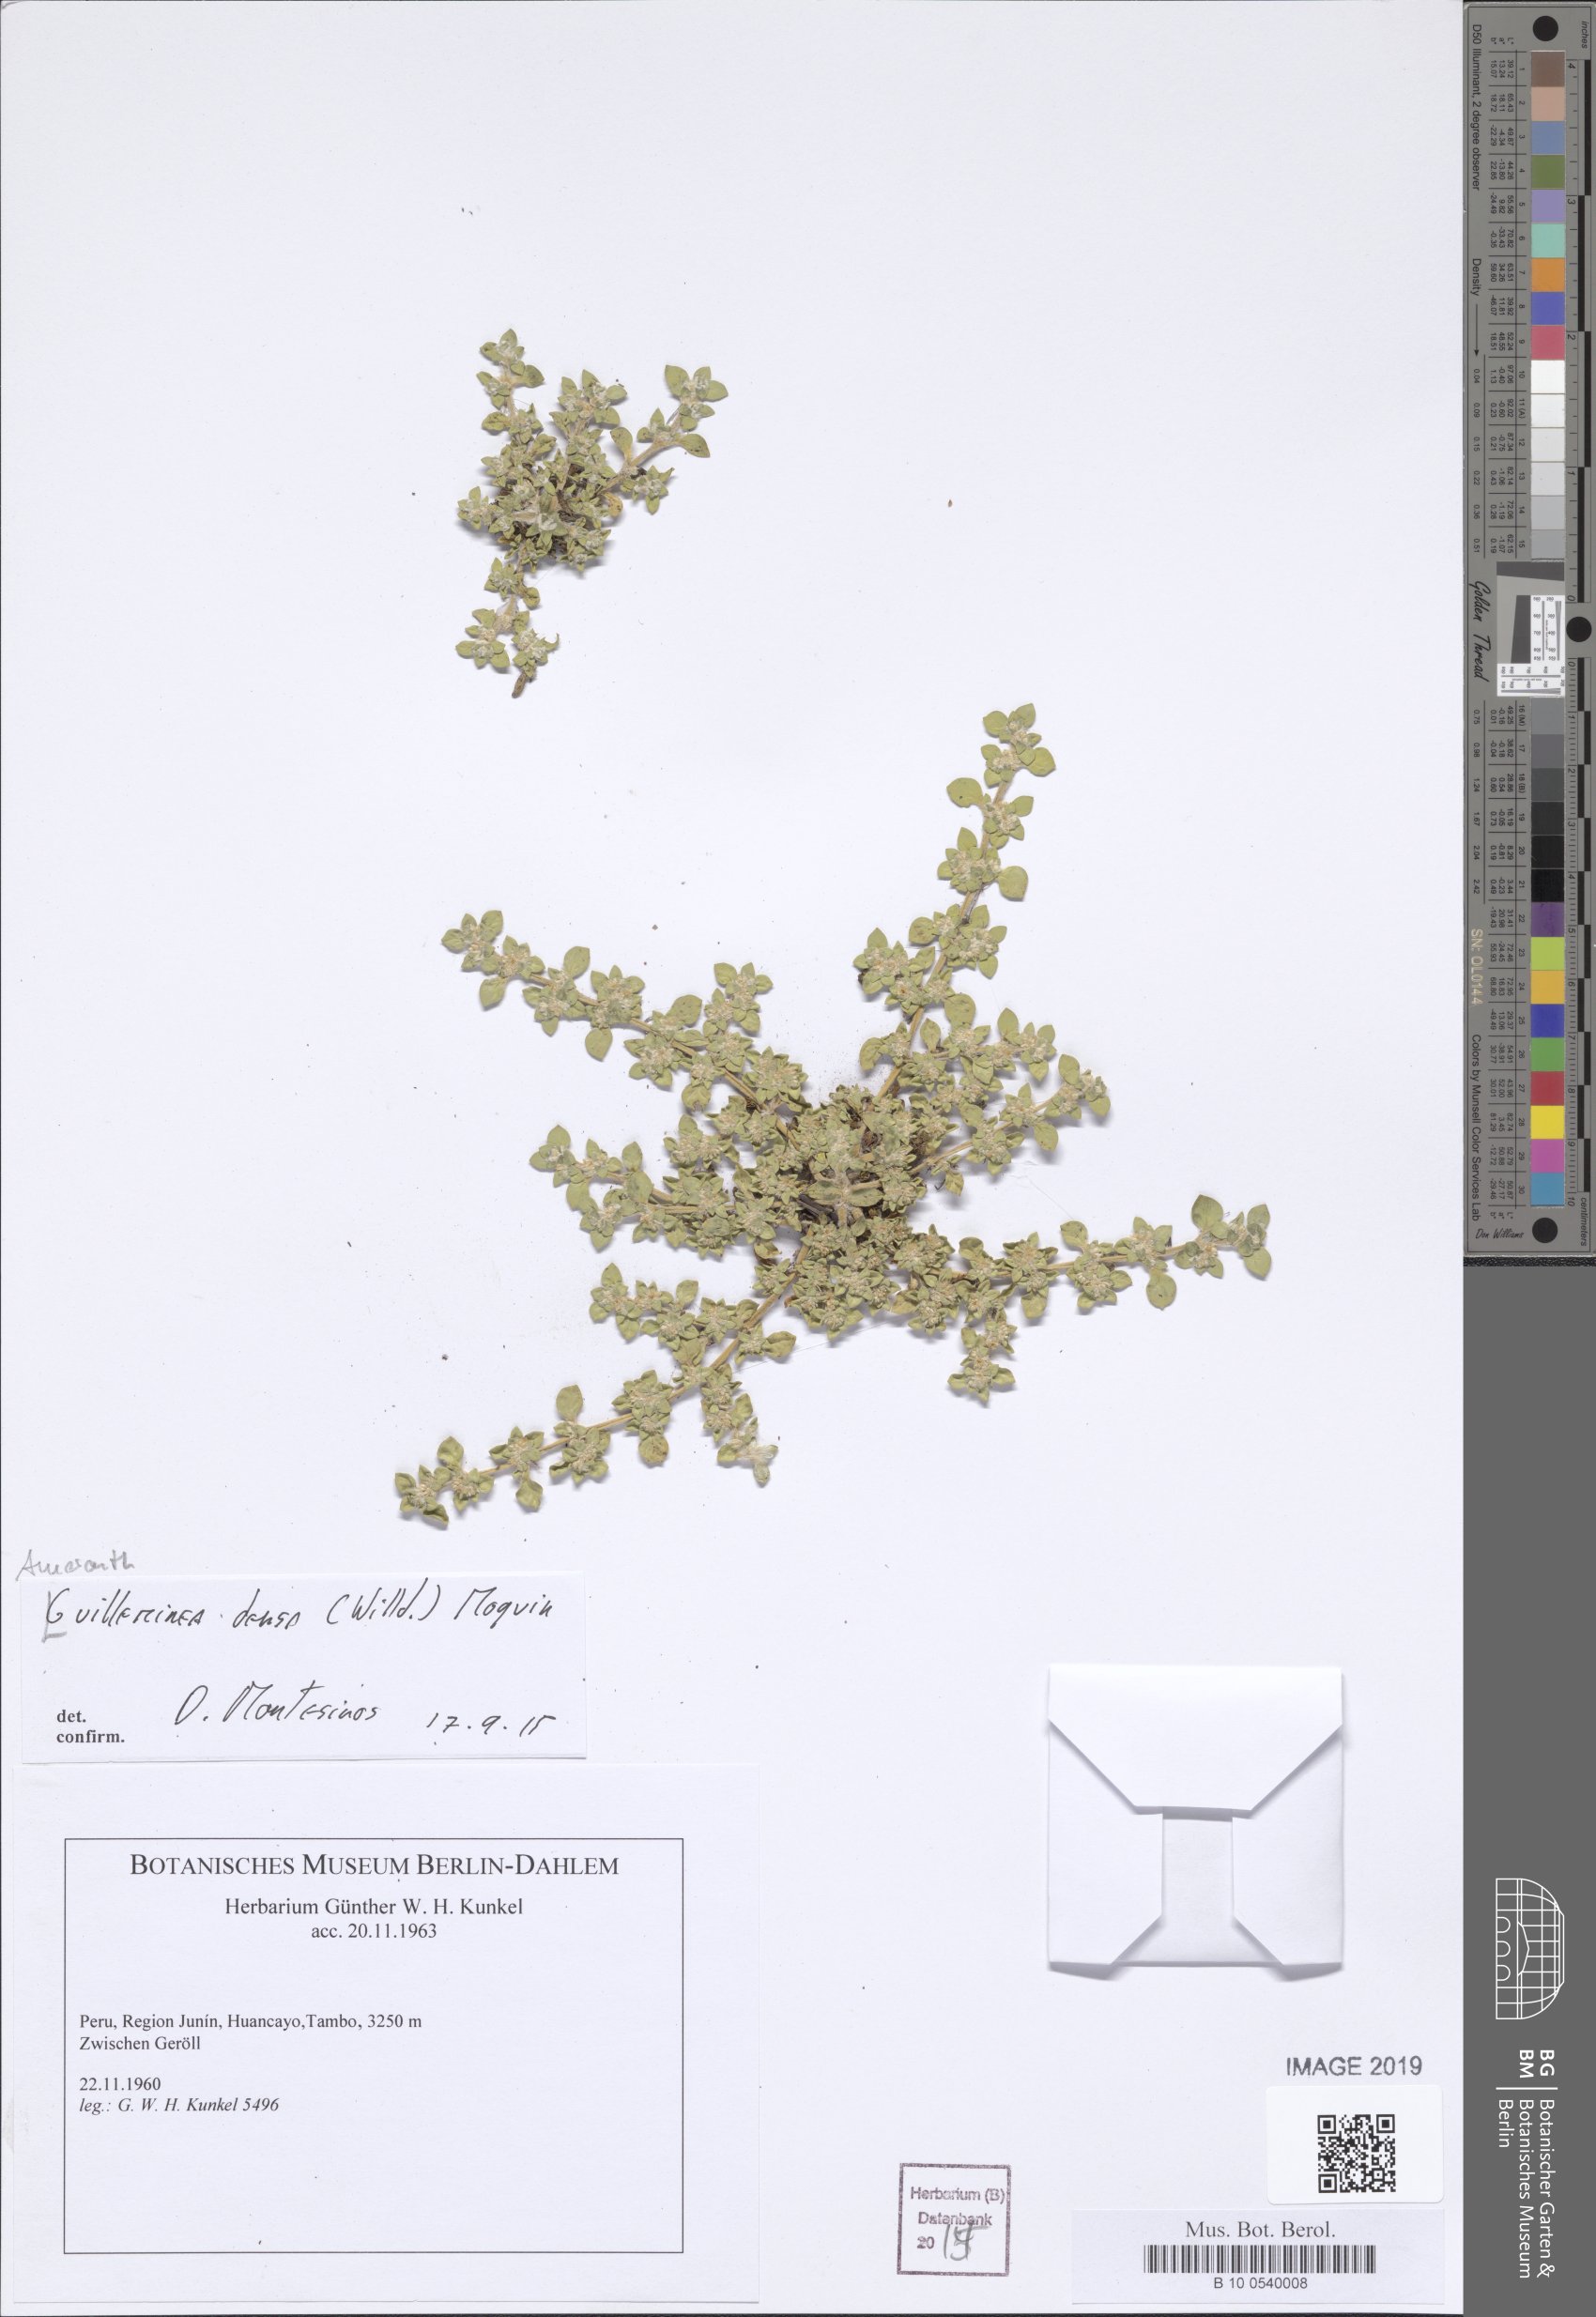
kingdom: Plantae
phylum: Tracheophyta
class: Magnoliopsida
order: Caryophyllales
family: Amaranthaceae
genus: Guilleminea
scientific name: Guilleminea densa
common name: Small matweed
